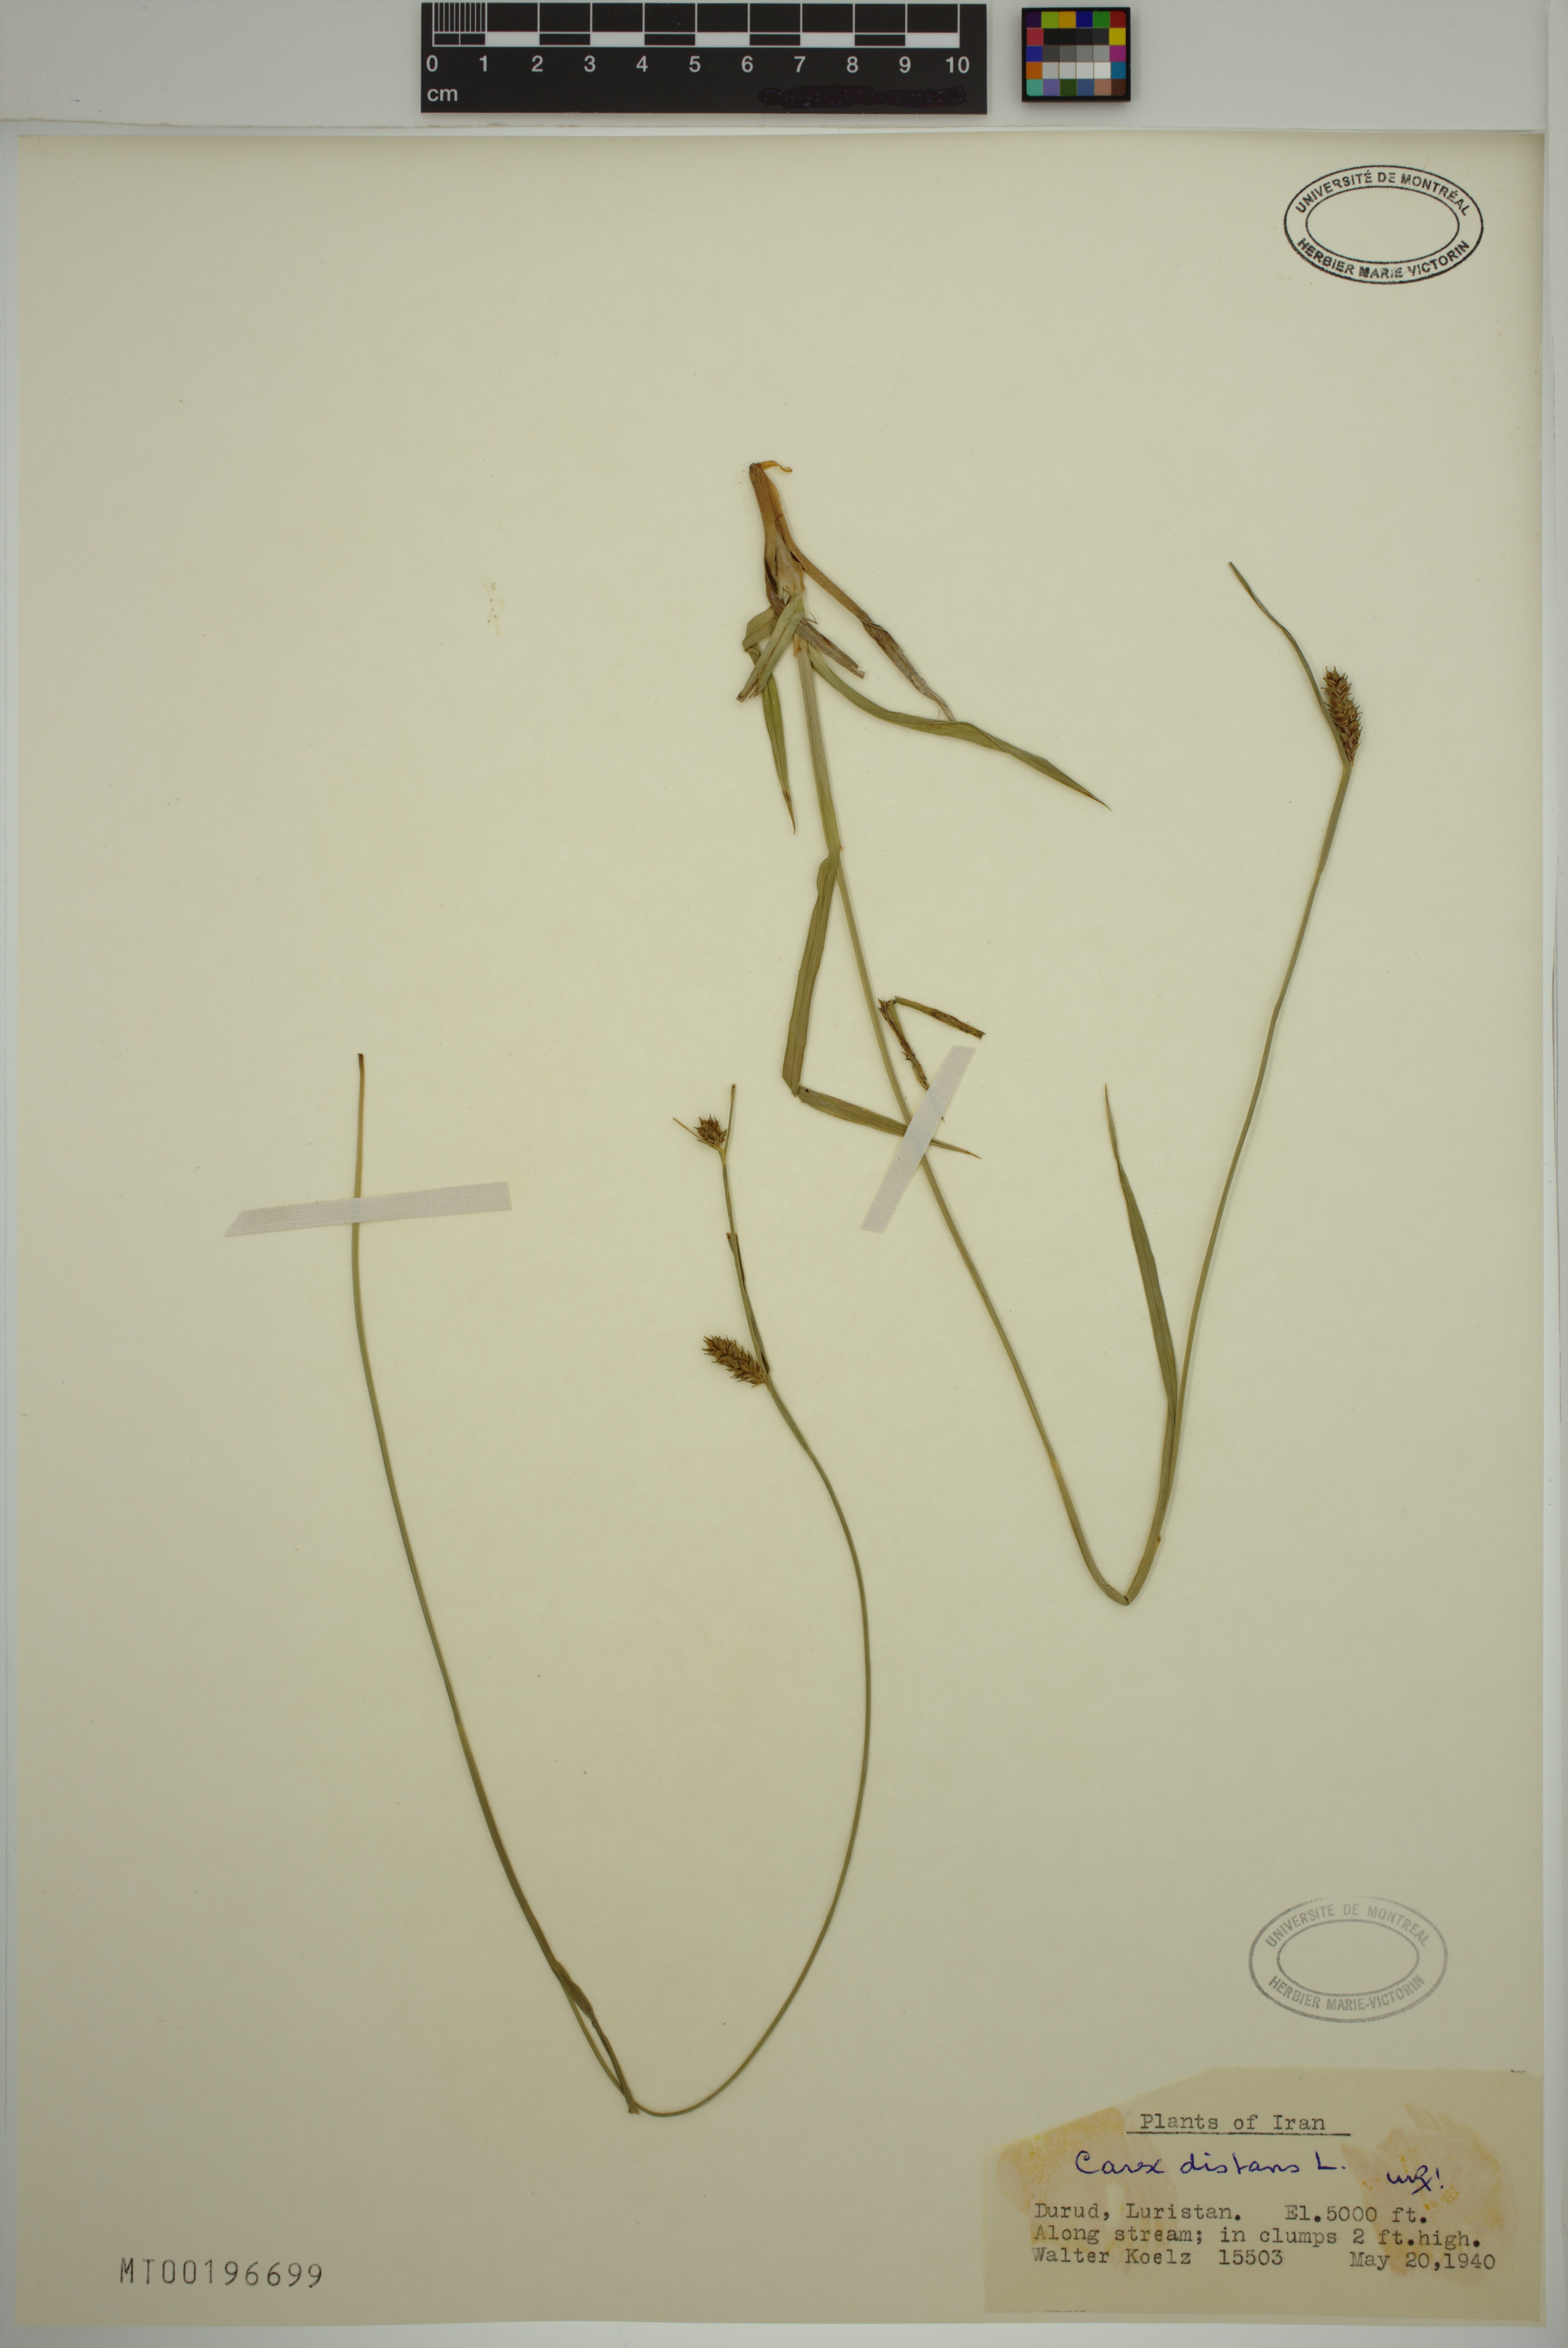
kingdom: Plantae
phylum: Tracheophyta
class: Liliopsida
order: Poales
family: Cyperaceae
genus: Carex
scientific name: Carex distans
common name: Distant sedge
